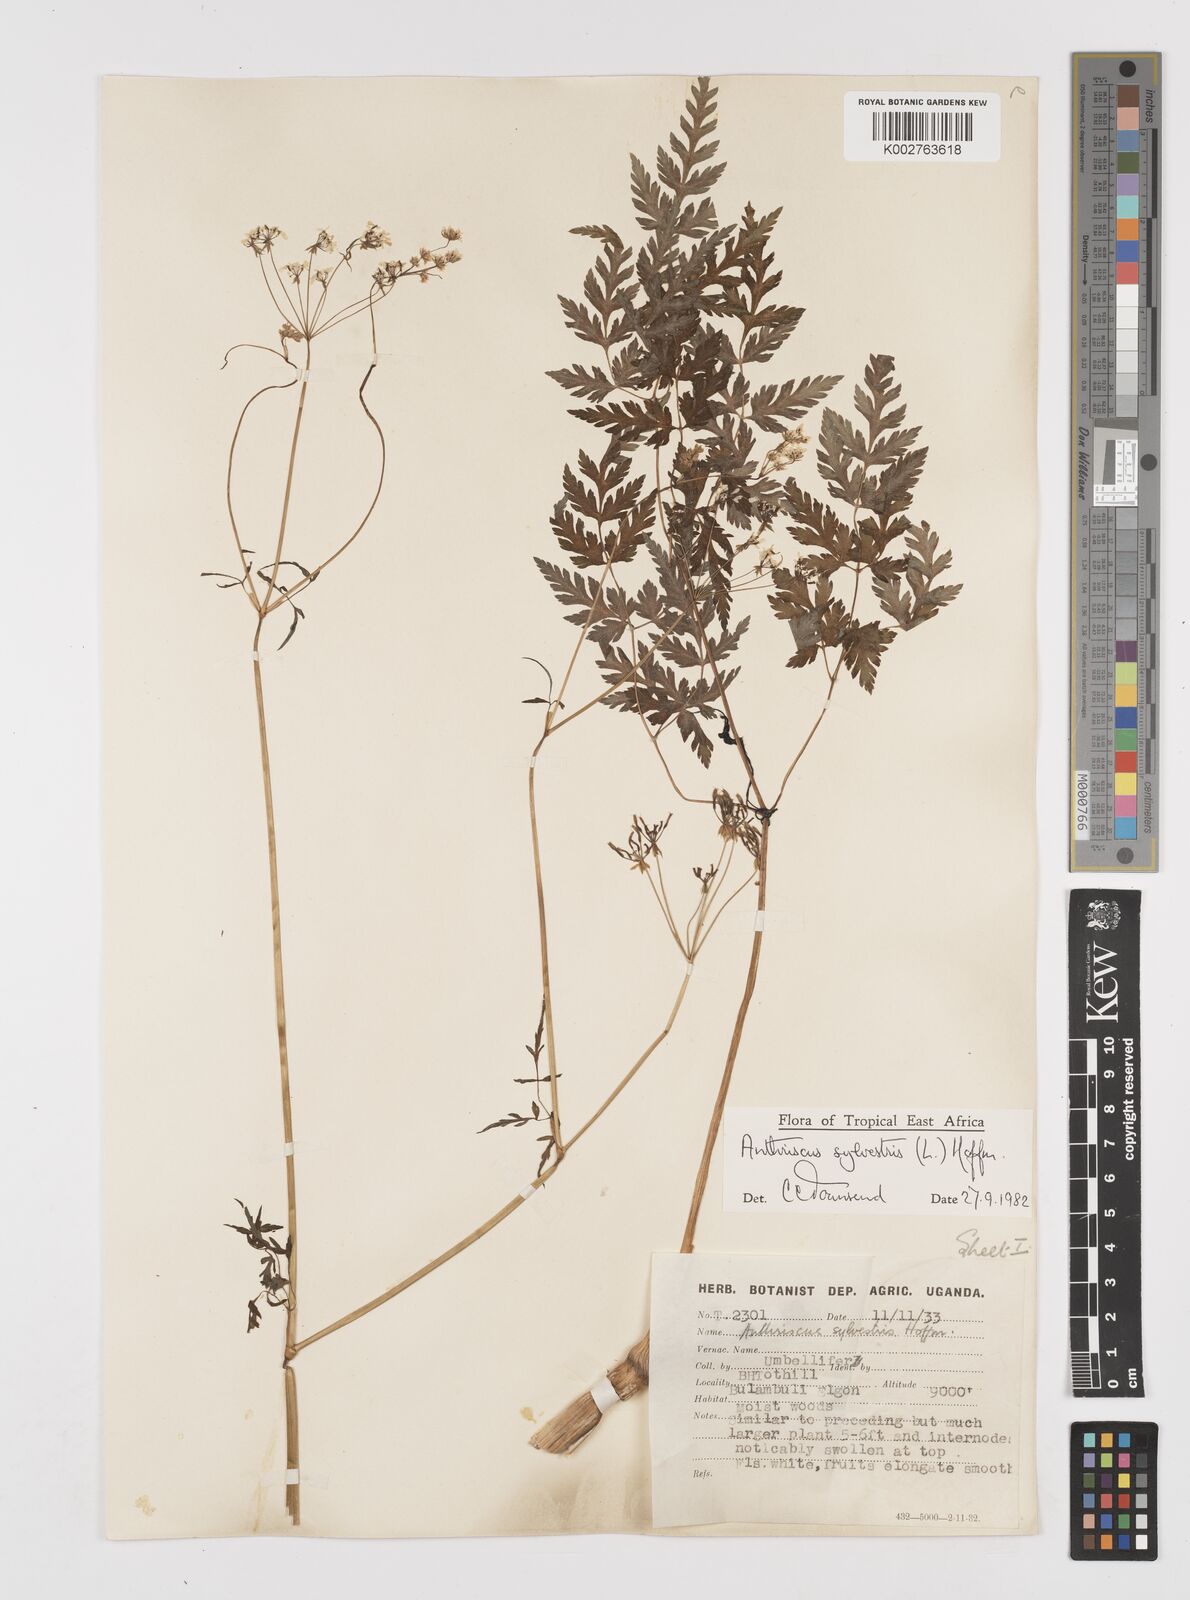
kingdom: Plantae
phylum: Tracheophyta
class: Magnoliopsida
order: Apiales
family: Apiaceae
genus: Anthriscus
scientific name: Anthriscus sylvestris
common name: Cow parsley
